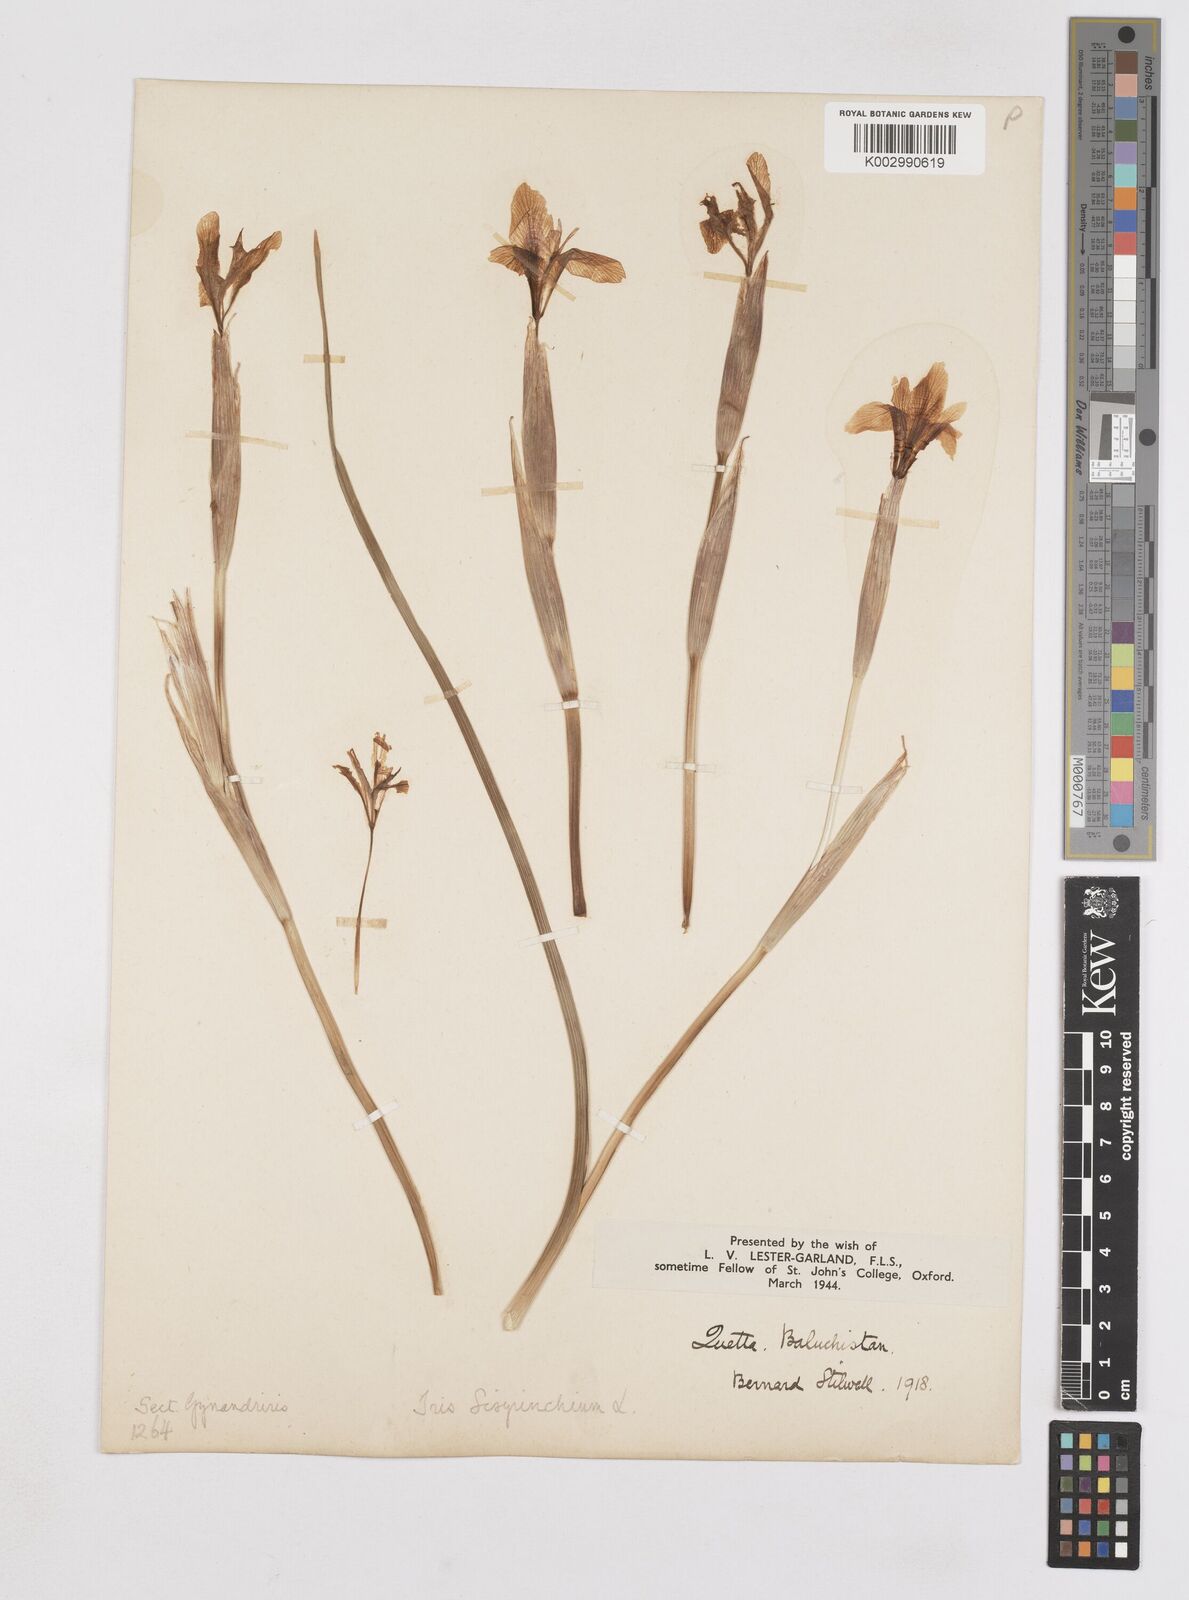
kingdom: Plantae
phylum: Tracheophyta
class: Liliopsida
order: Asparagales
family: Iridaceae
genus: Moraea
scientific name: Moraea sisyrinchium
